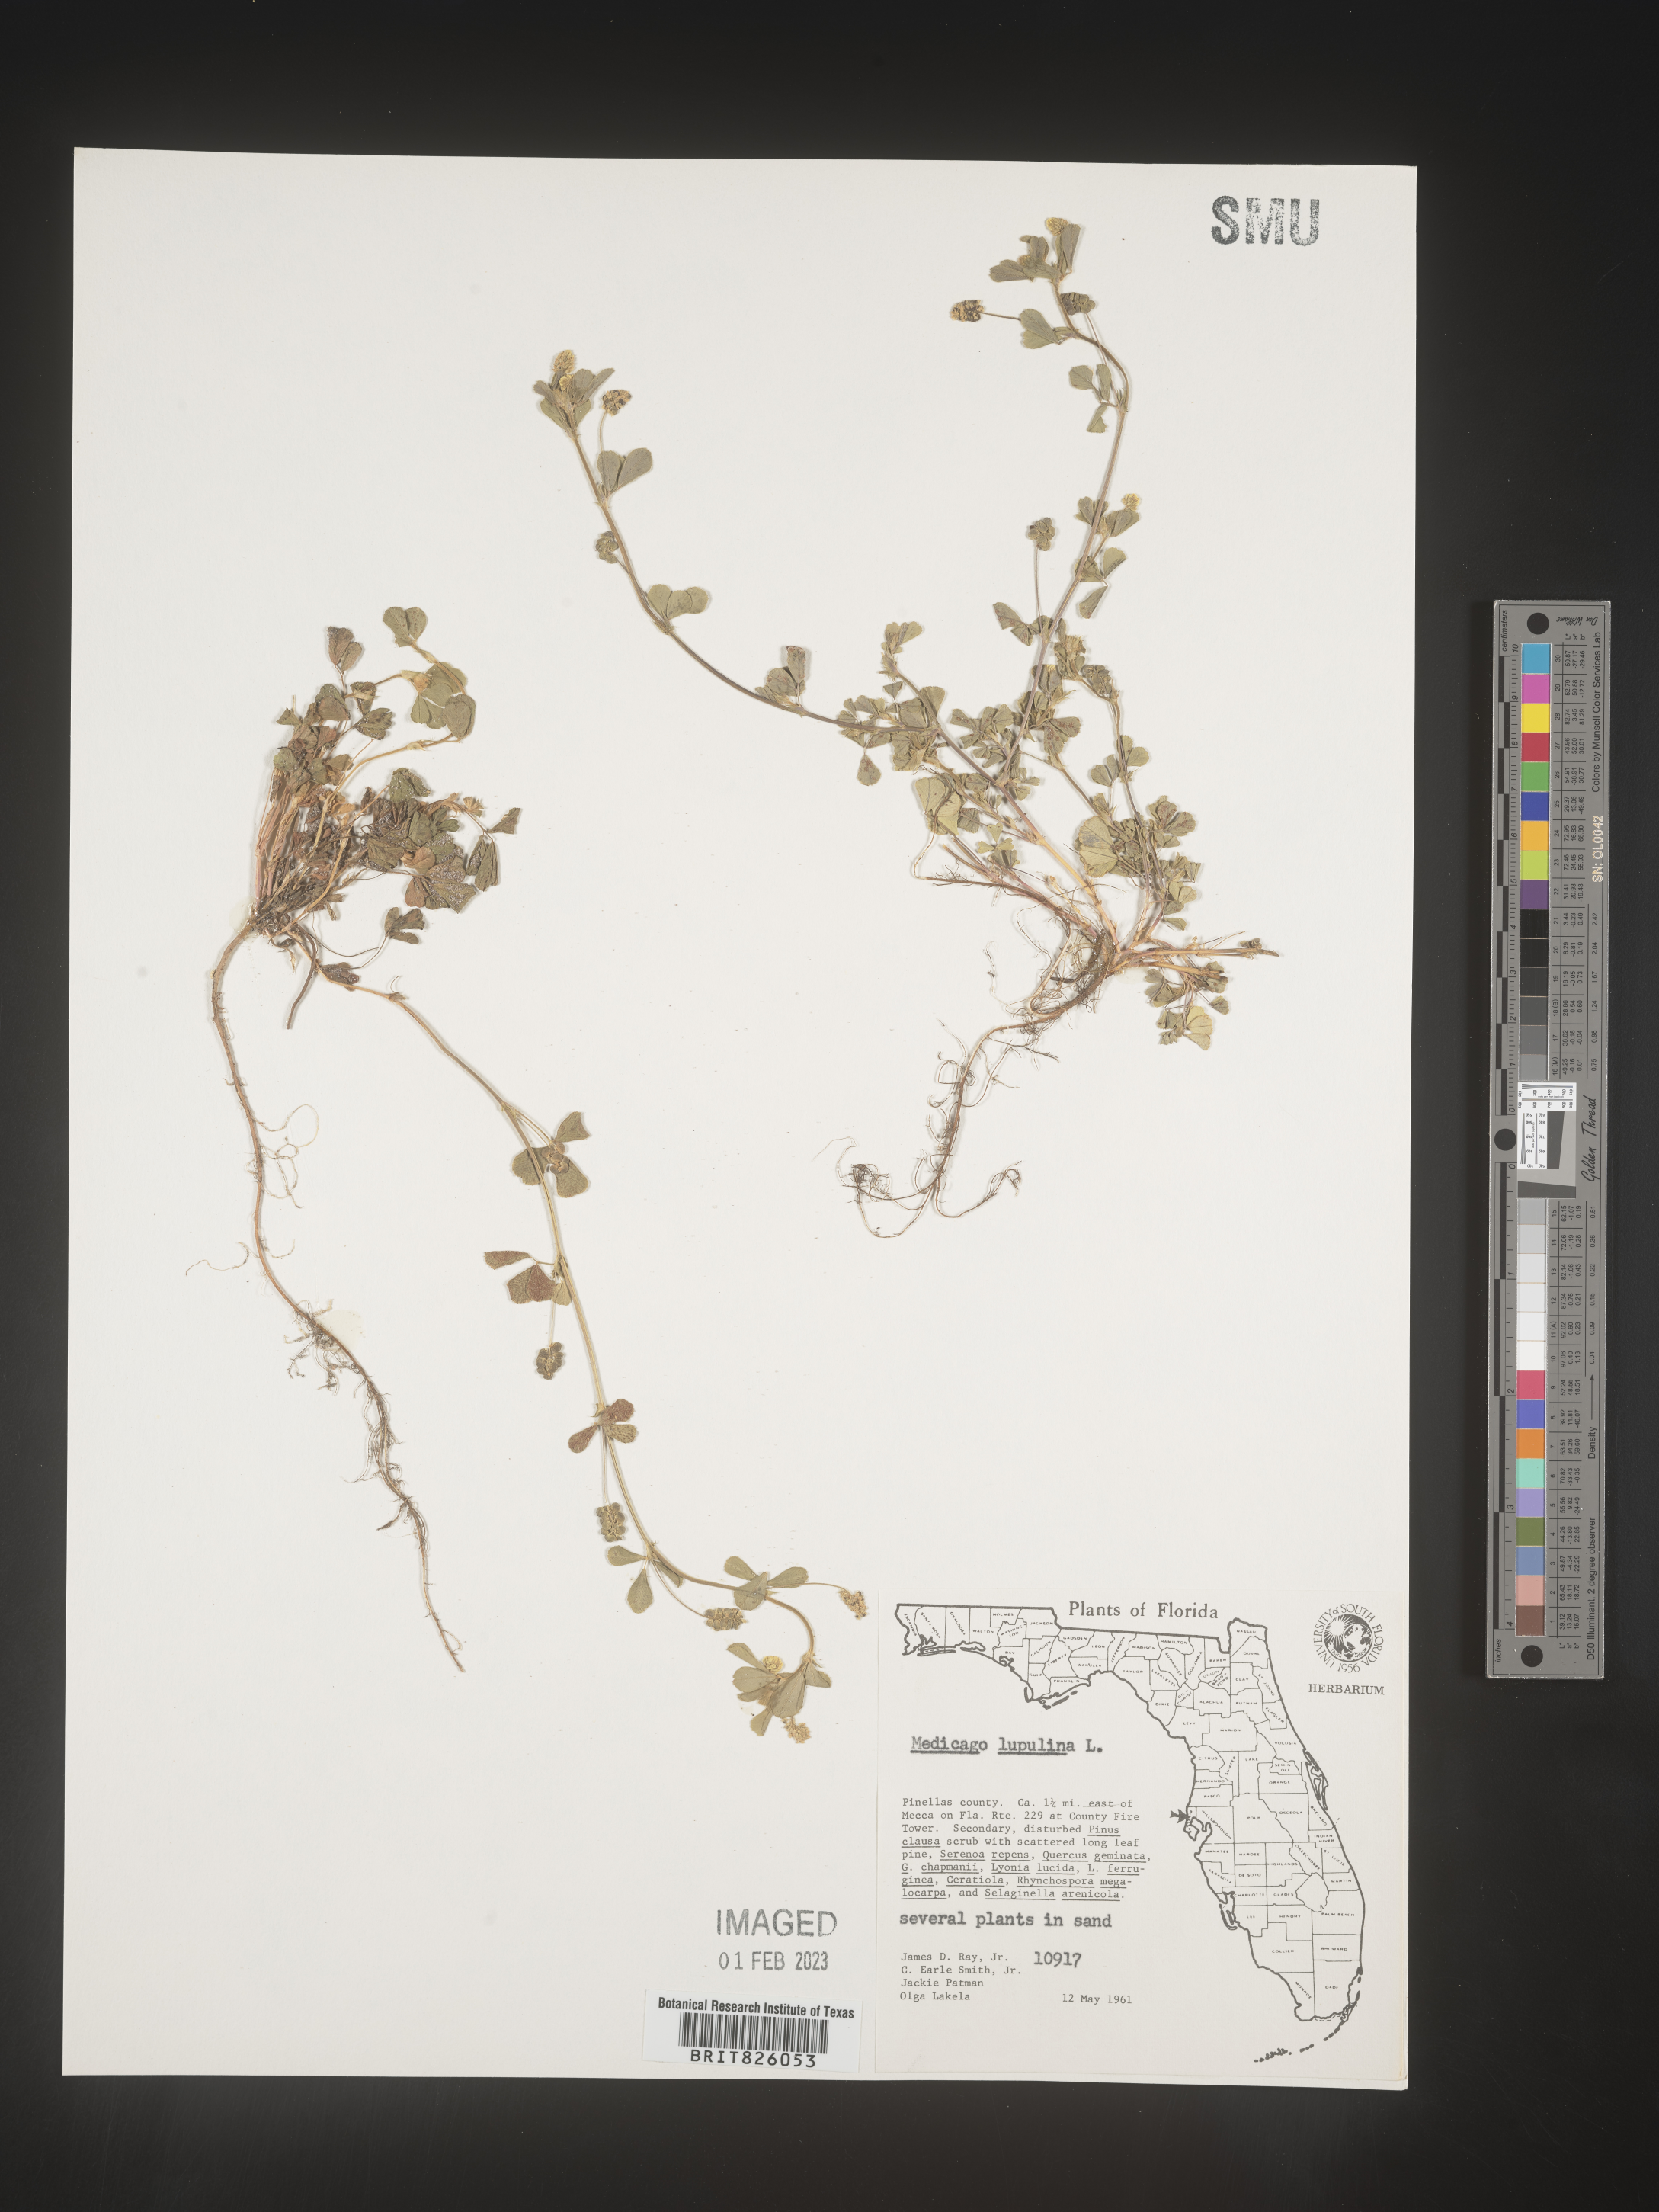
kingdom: Plantae
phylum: Tracheophyta
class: Magnoliopsida
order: Fabales
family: Fabaceae
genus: Medicago
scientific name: Medicago lupulina
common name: Black medick
